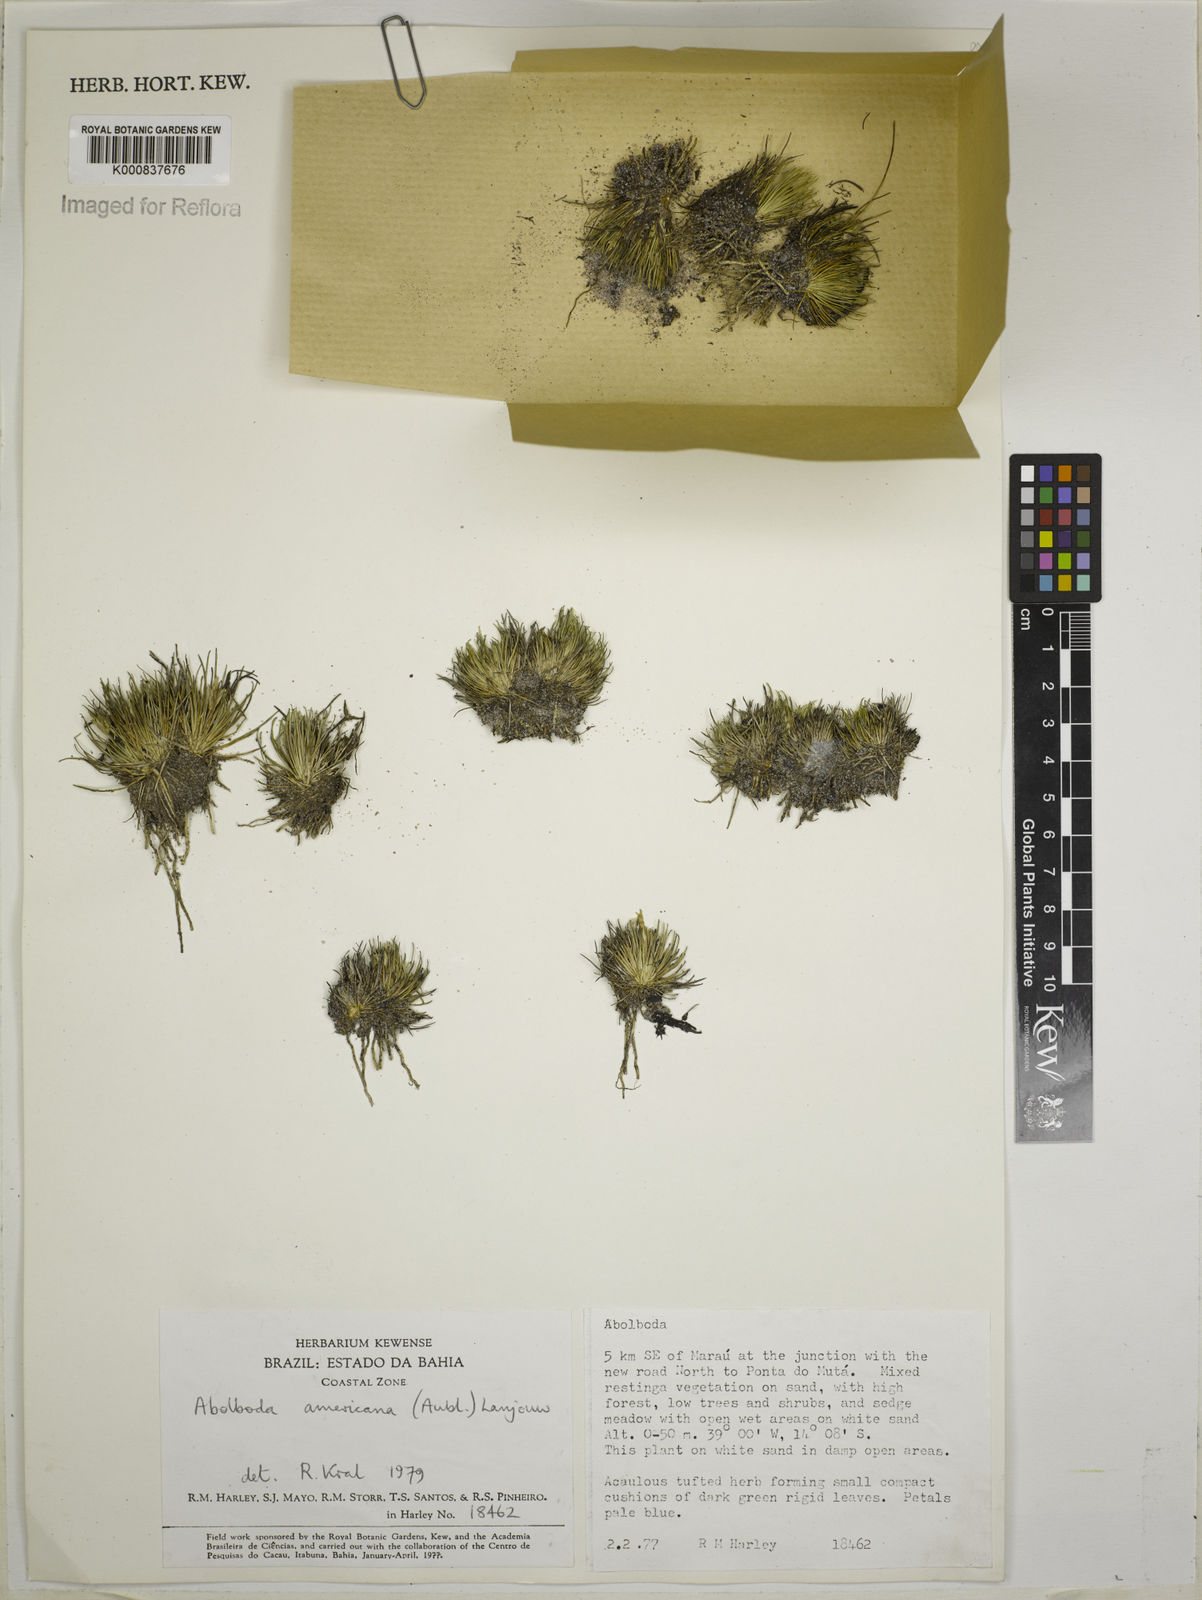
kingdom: Plantae
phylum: Tracheophyta
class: Liliopsida
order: Poales
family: Xyridaceae
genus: Abolboda
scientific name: Abolboda americana
